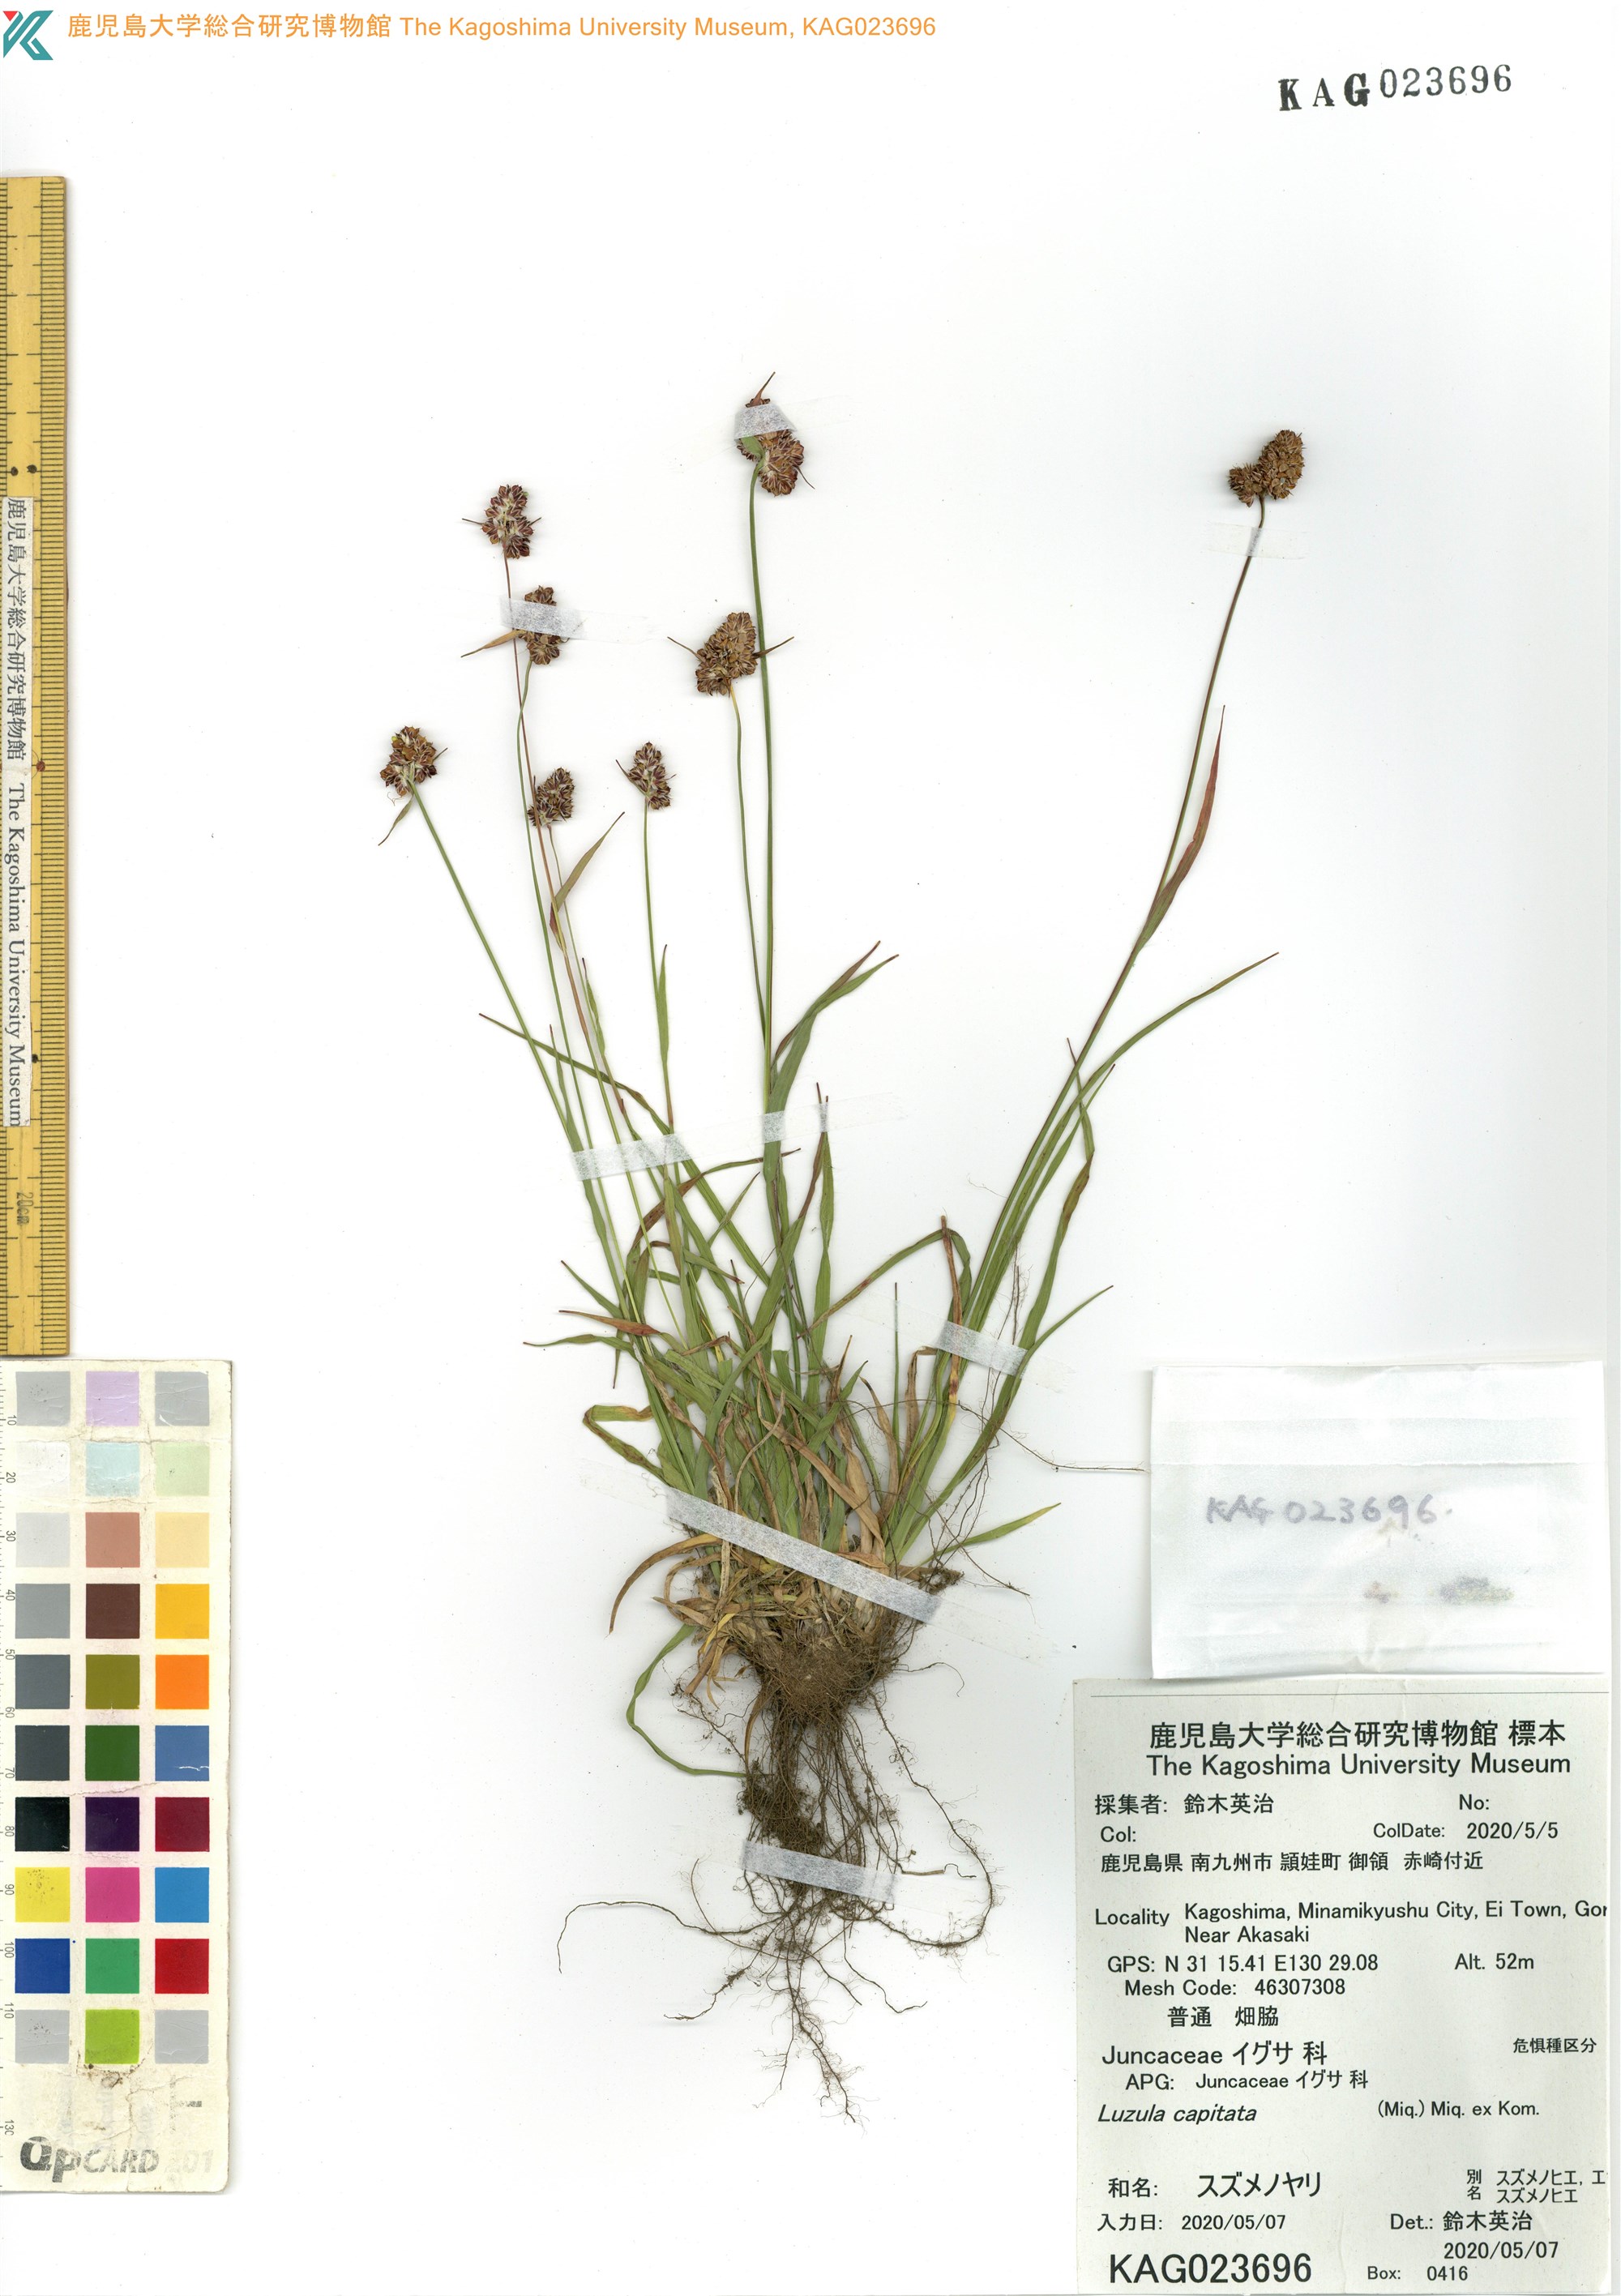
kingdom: Plantae
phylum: Tracheophyta
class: Liliopsida
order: Poales
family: Juncaceae
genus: Luzula
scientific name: Luzula capitata
